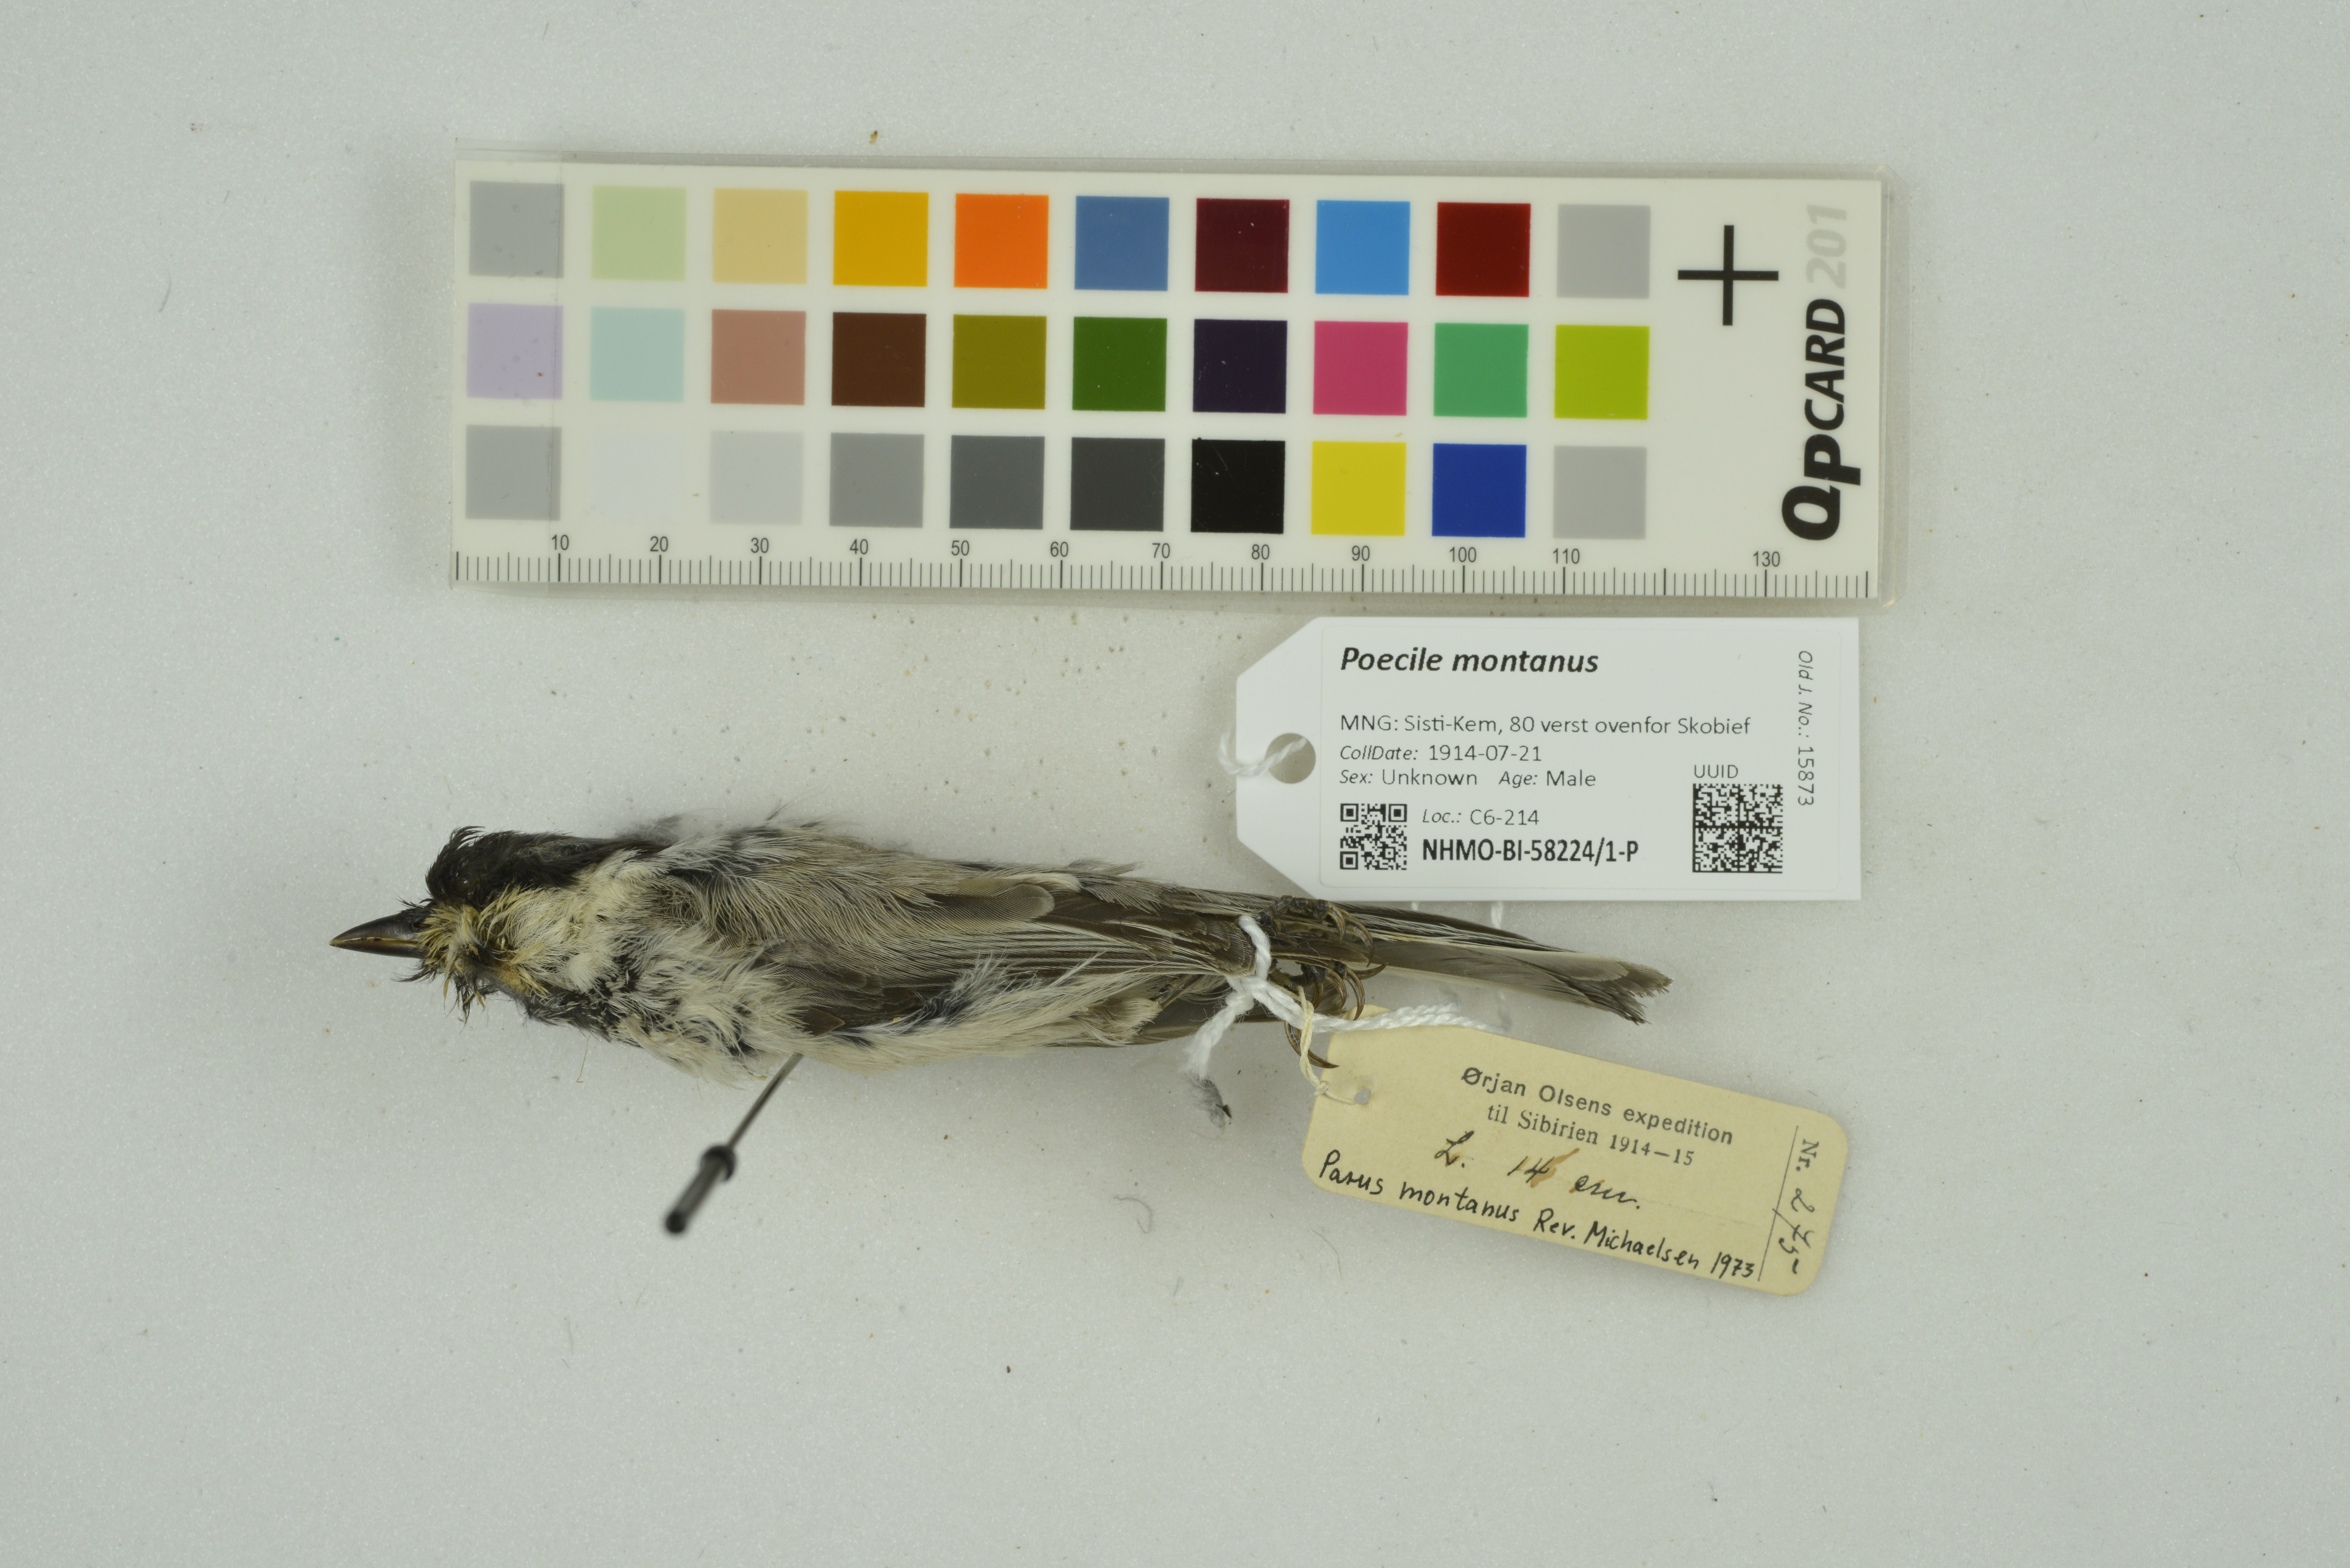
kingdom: Animalia
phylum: Chordata
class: Aves
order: Passeriformes
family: Paridae
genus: Poecile
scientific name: Poecile montanus
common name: Willow tit
